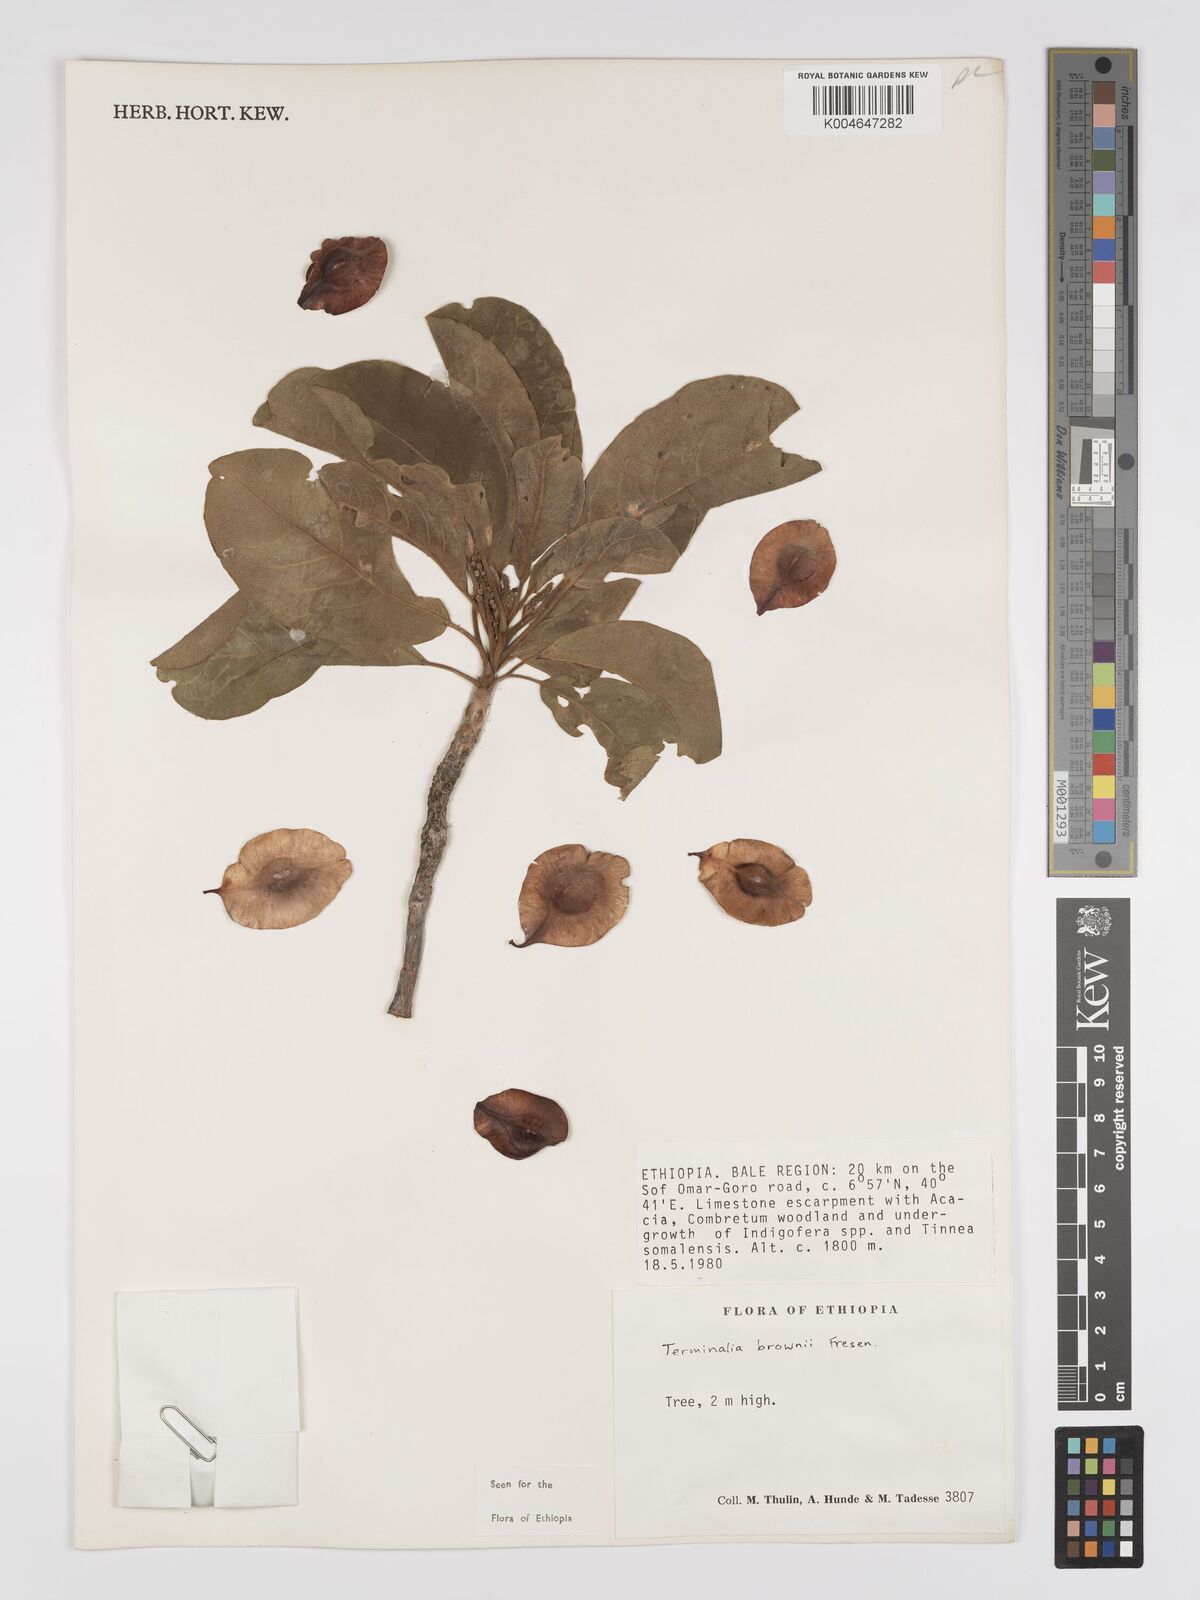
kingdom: Plantae
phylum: Tracheophyta
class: Magnoliopsida
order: Myrtales
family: Combretaceae
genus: Terminalia
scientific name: Terminalia brownii
